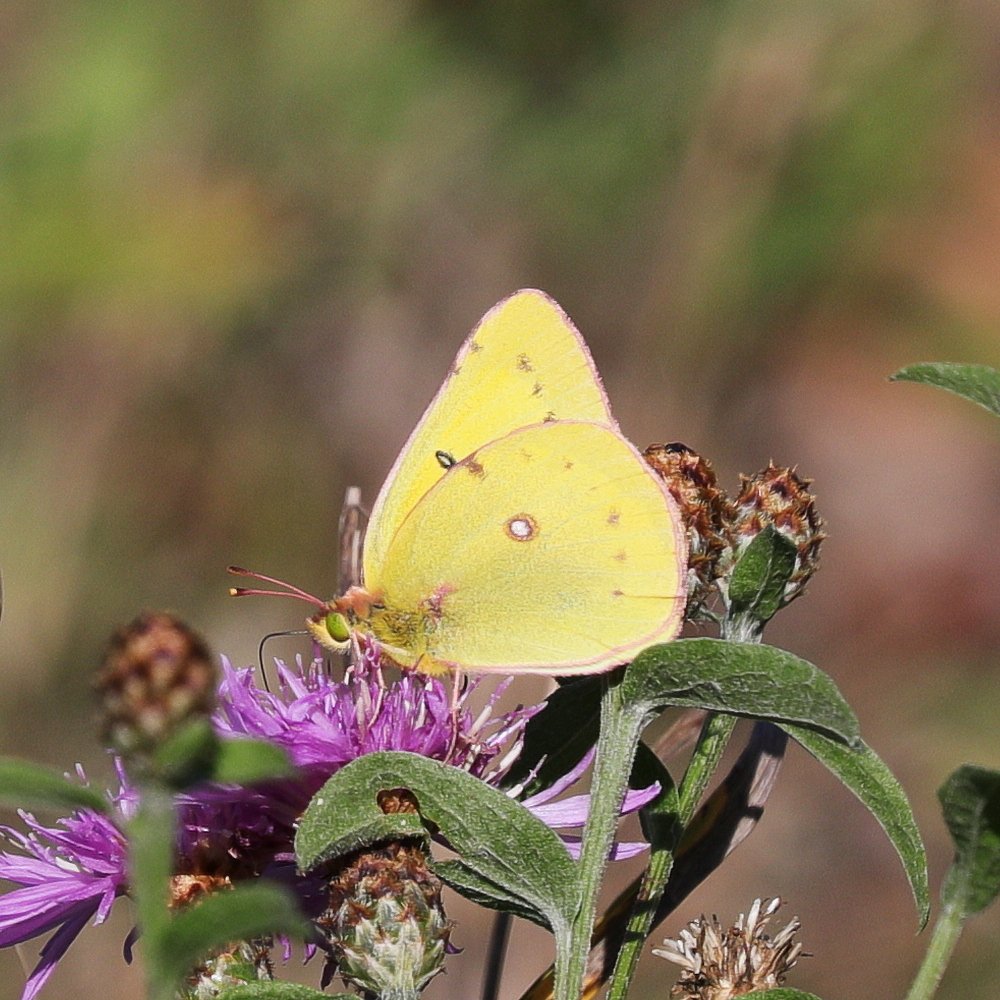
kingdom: Animalia
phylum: Arthropoda
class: Insecta
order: Lepidoptera
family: Pieridae
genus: Colias
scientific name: Colias eurytheme
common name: Orange Sulphur
